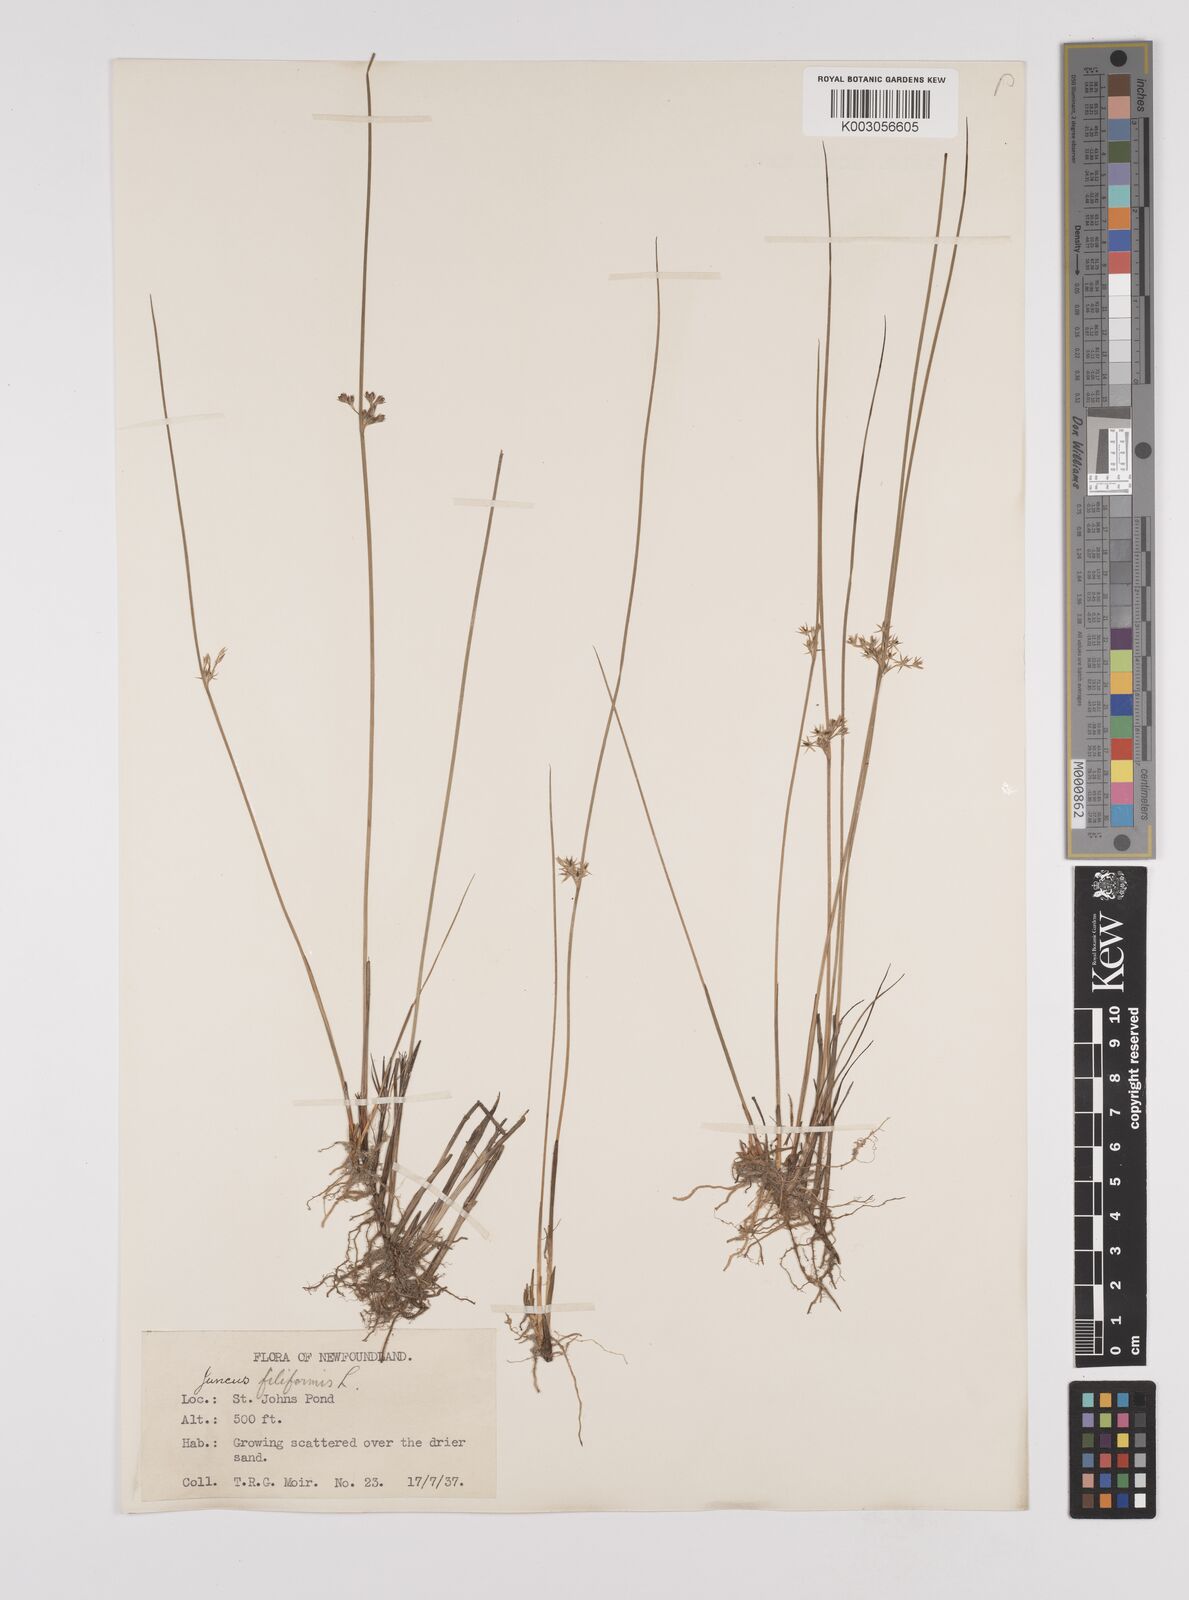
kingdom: Plantae
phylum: Tracheophyta
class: Liliopsida
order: Poales
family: Juncaceae
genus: Juncus
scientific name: Juncus filiformis
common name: Thread rush
